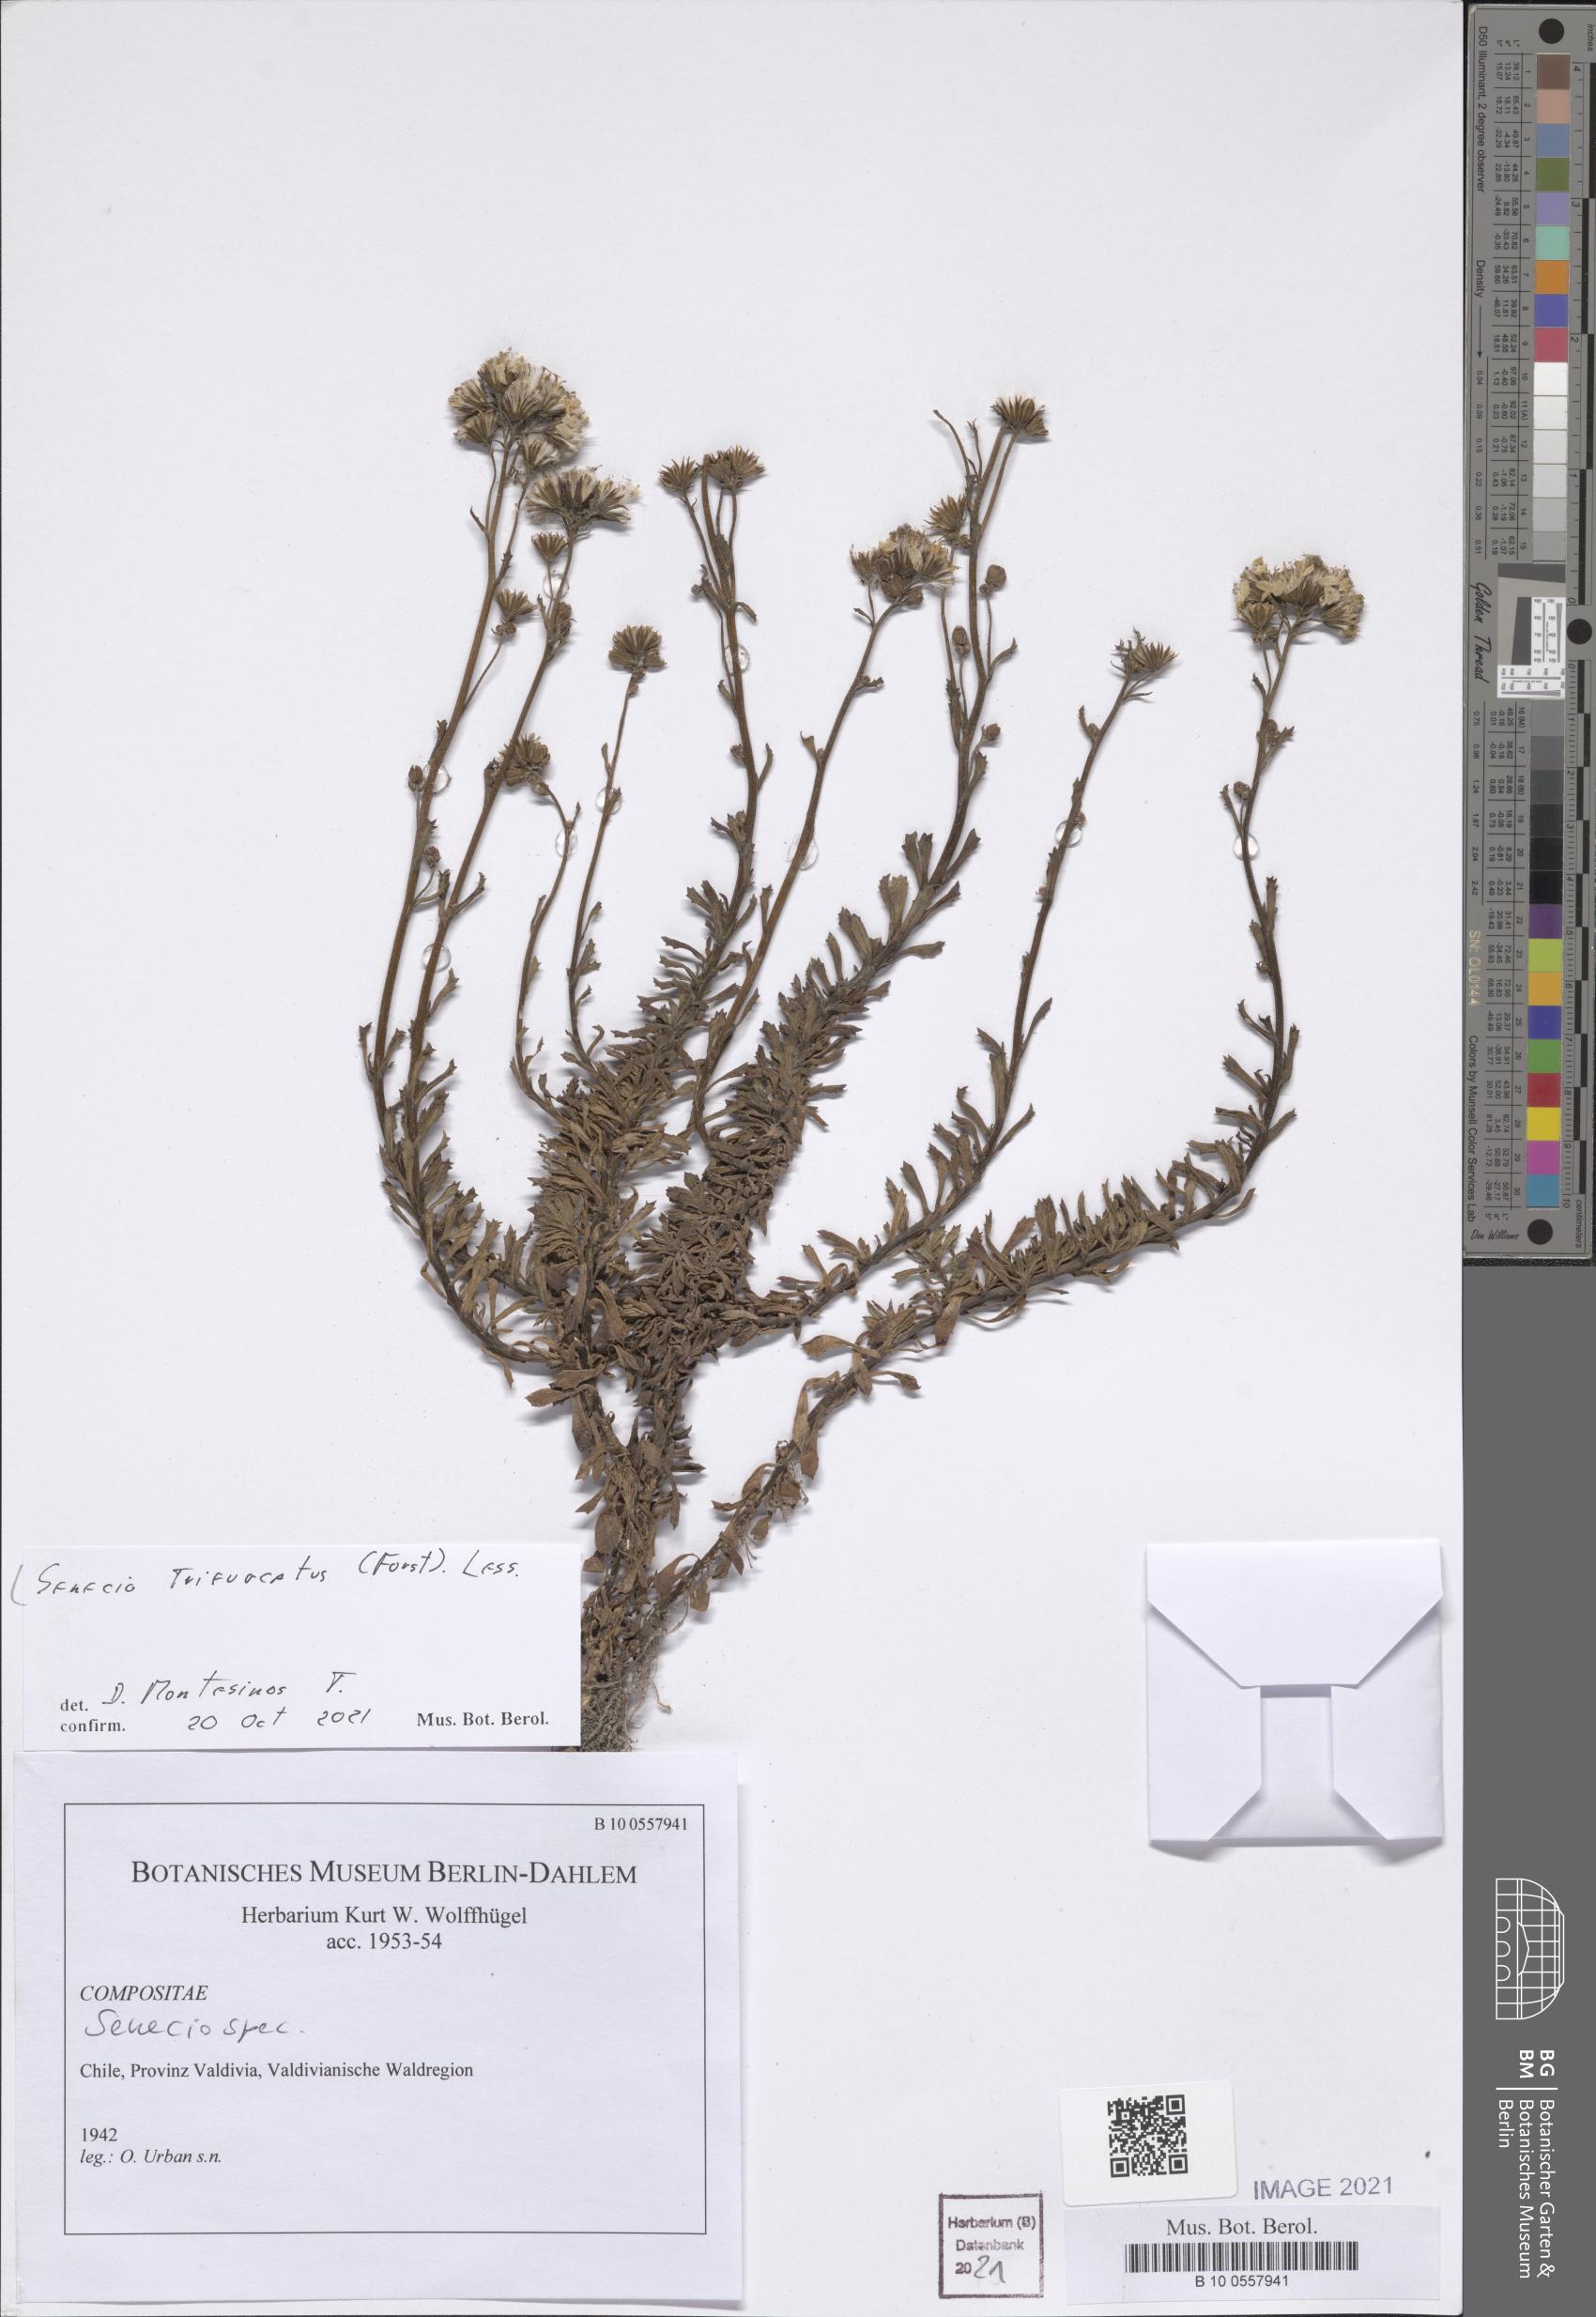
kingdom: Plantae
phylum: Tracheophyta
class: Magnoliopsida
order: Asterales
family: Asteraceae
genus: Haplosticha
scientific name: Haplosticha trifurcata
